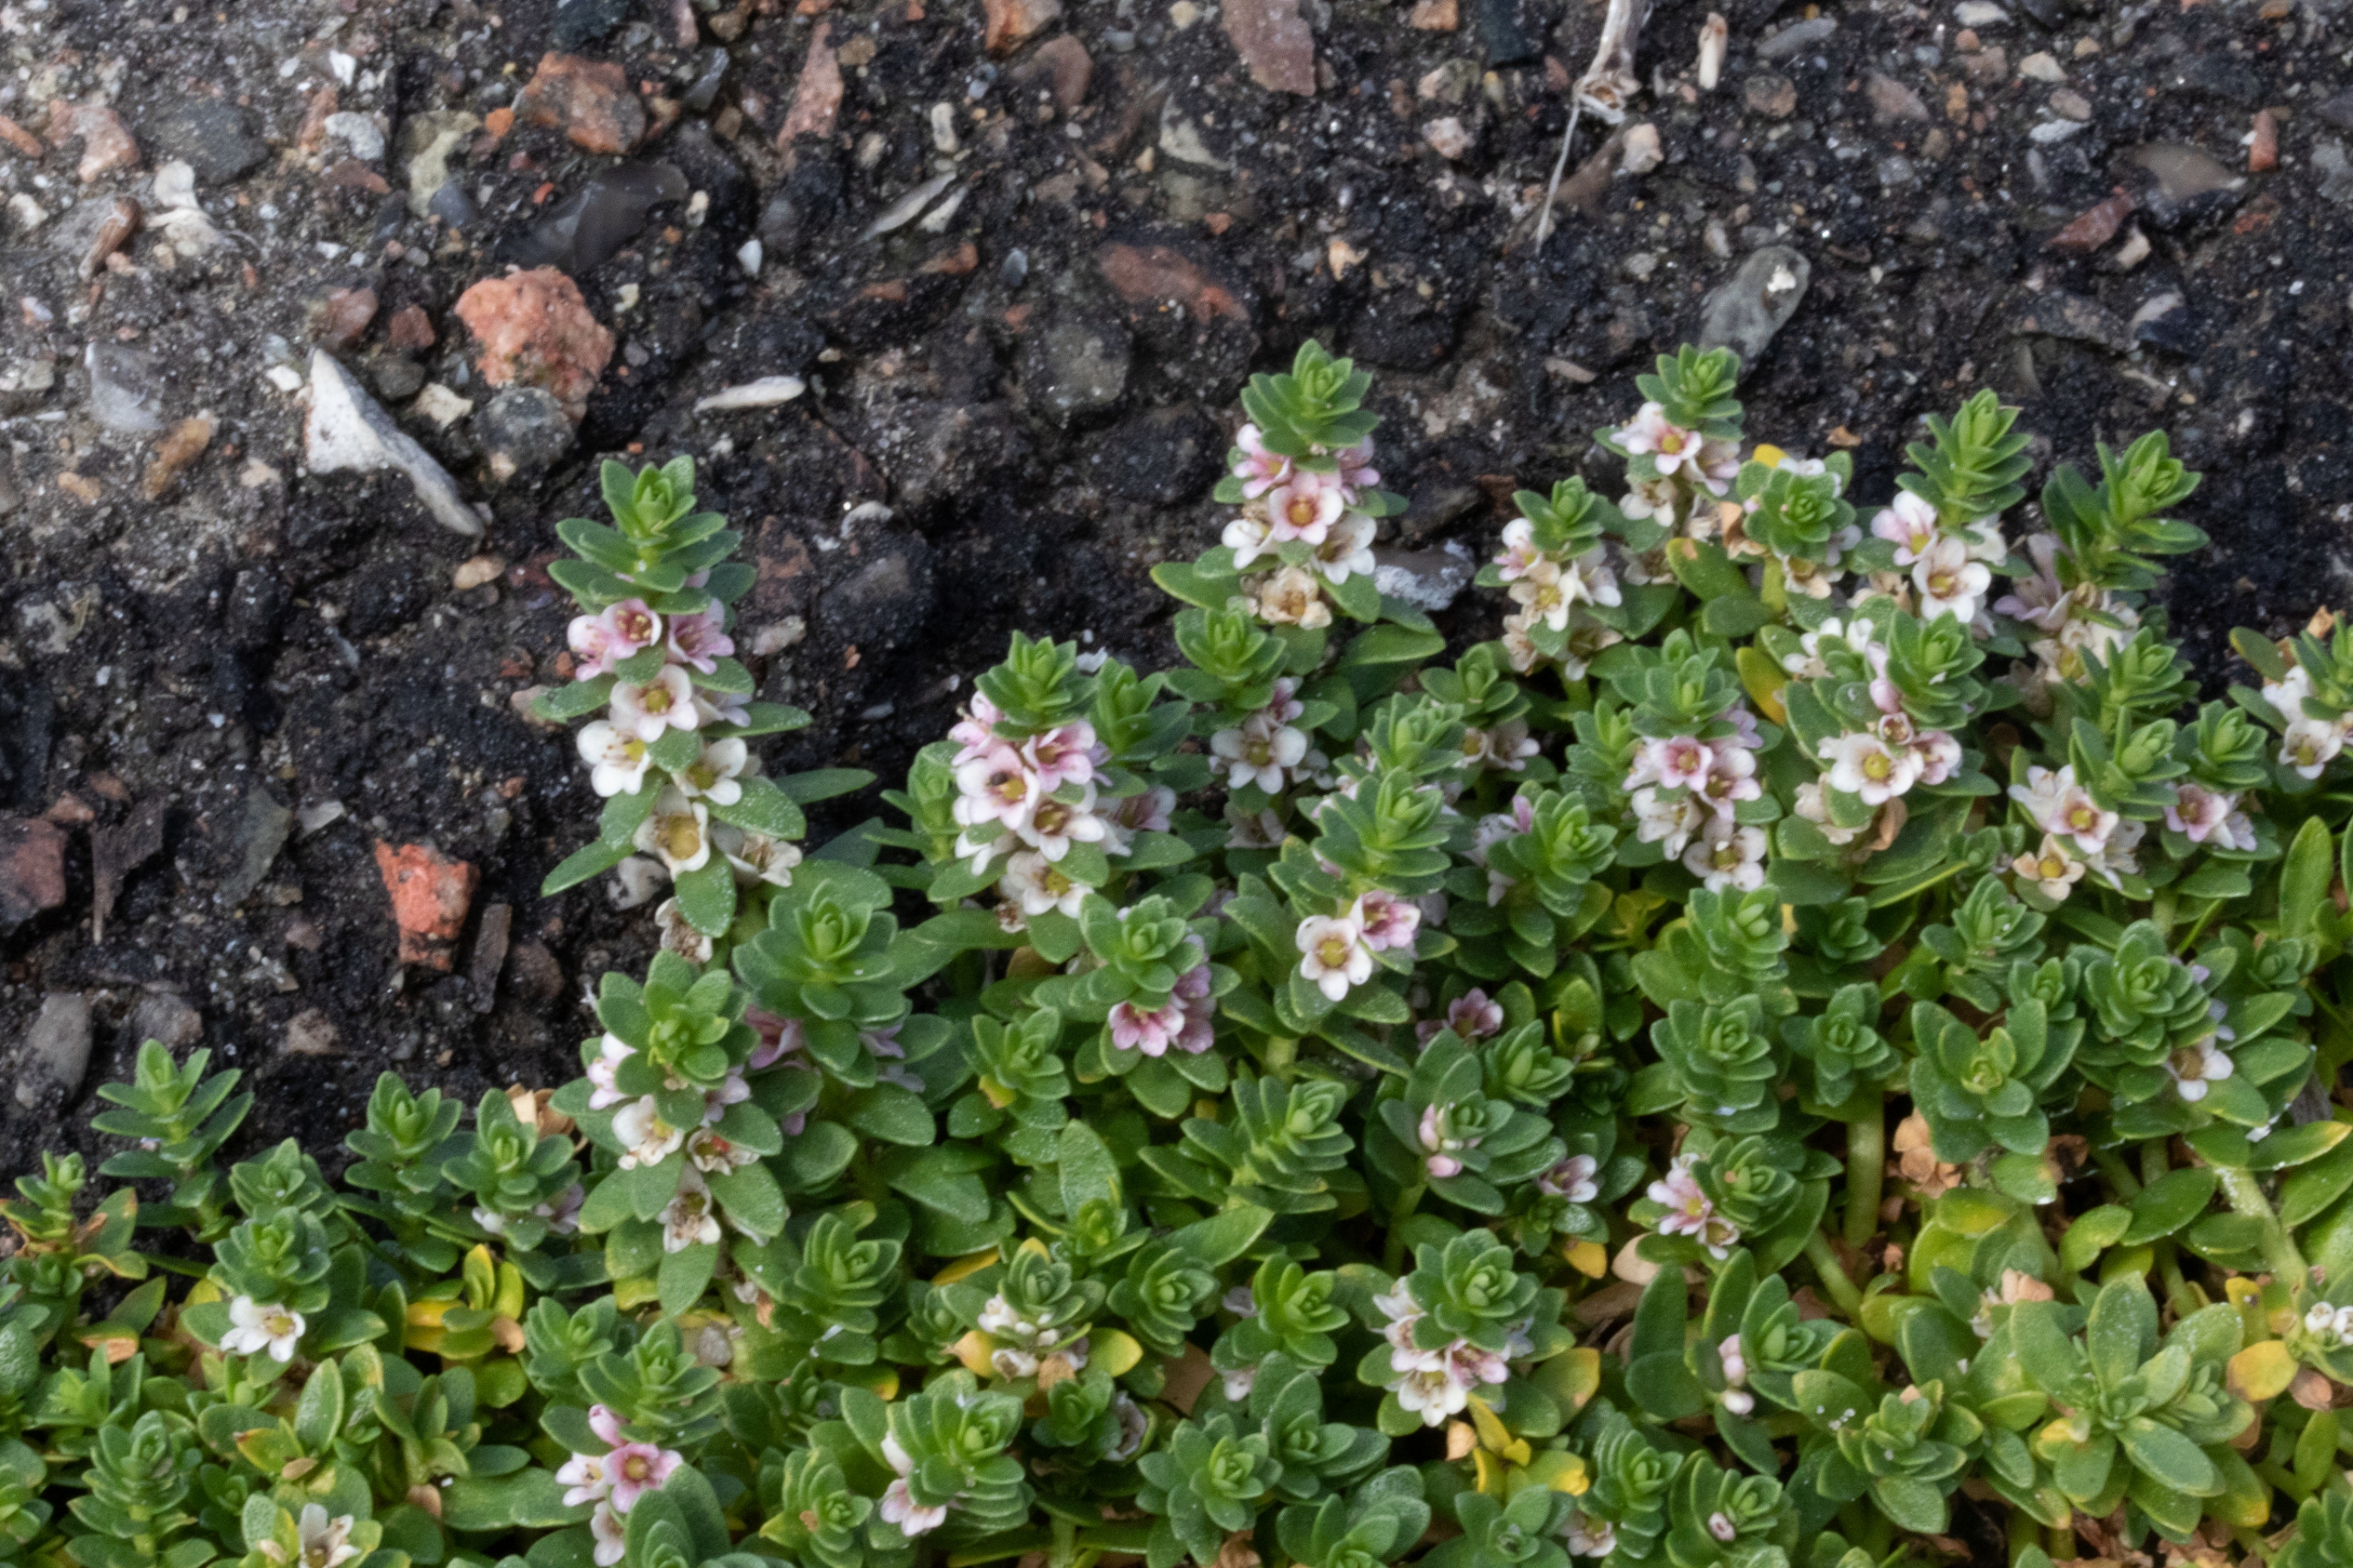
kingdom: Plantae
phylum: Tracheophyta
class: Magnoliopsida
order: Ericales
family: Primulaceae
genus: Lysimachia
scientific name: Lysimachia maritima
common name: Sandkryb
